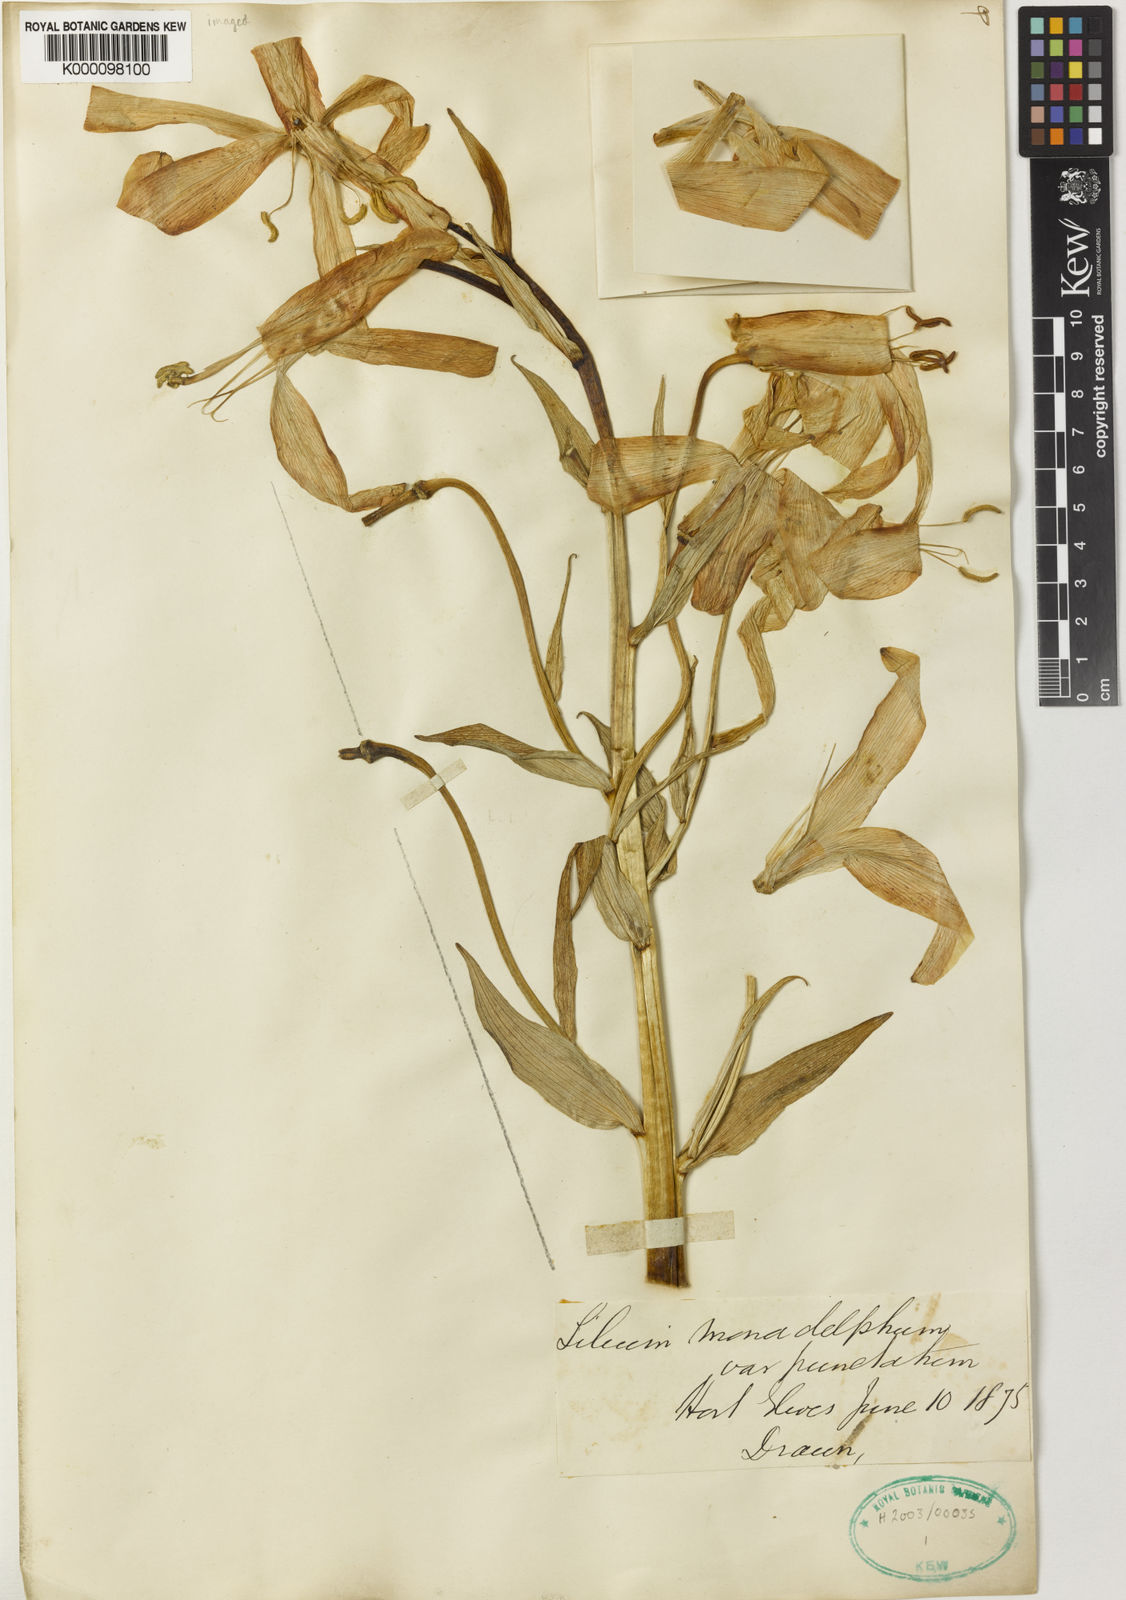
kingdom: Plantae
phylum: Tracheophyta
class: Liliopsida
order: Liliales
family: Liliaceae
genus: Lilium
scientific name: Lilium monadelphum
